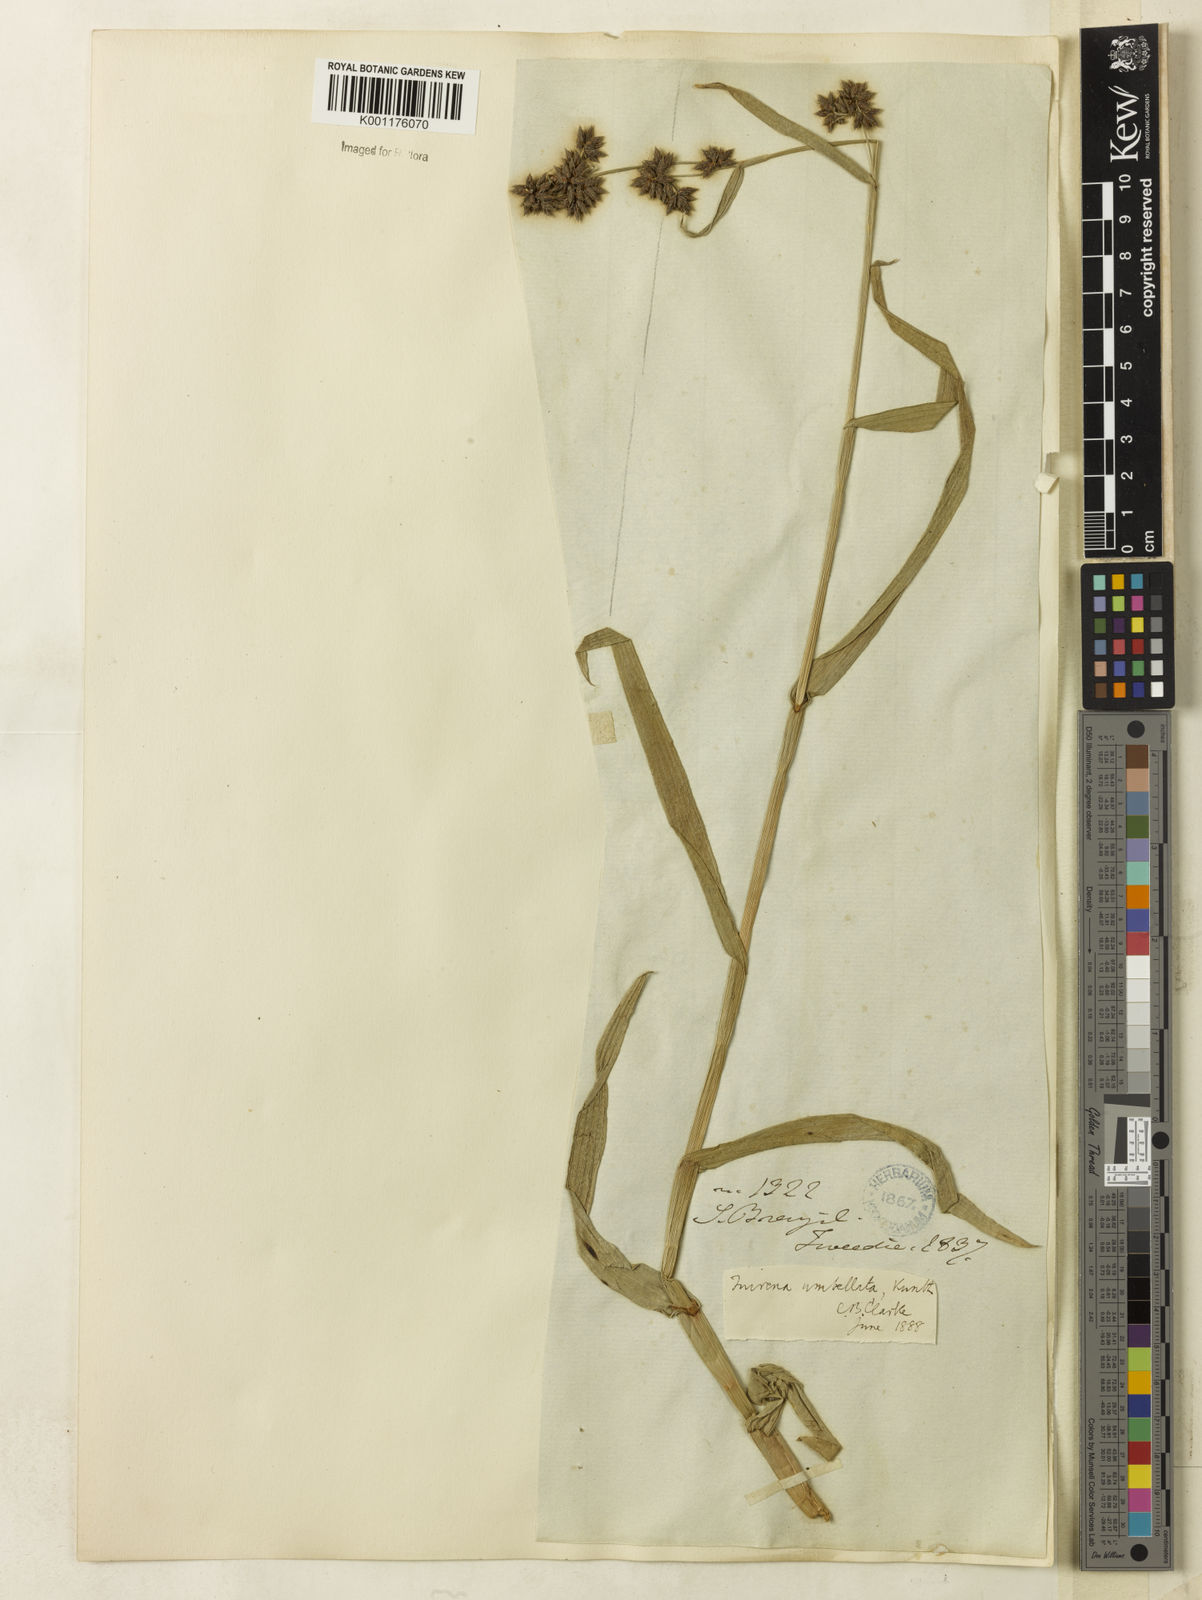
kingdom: Plantae
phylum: Tracheophyta
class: Liliopsida
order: Poales
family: Cyperaceae
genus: Fuirena
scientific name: Fuirena umbellata
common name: Yefen
